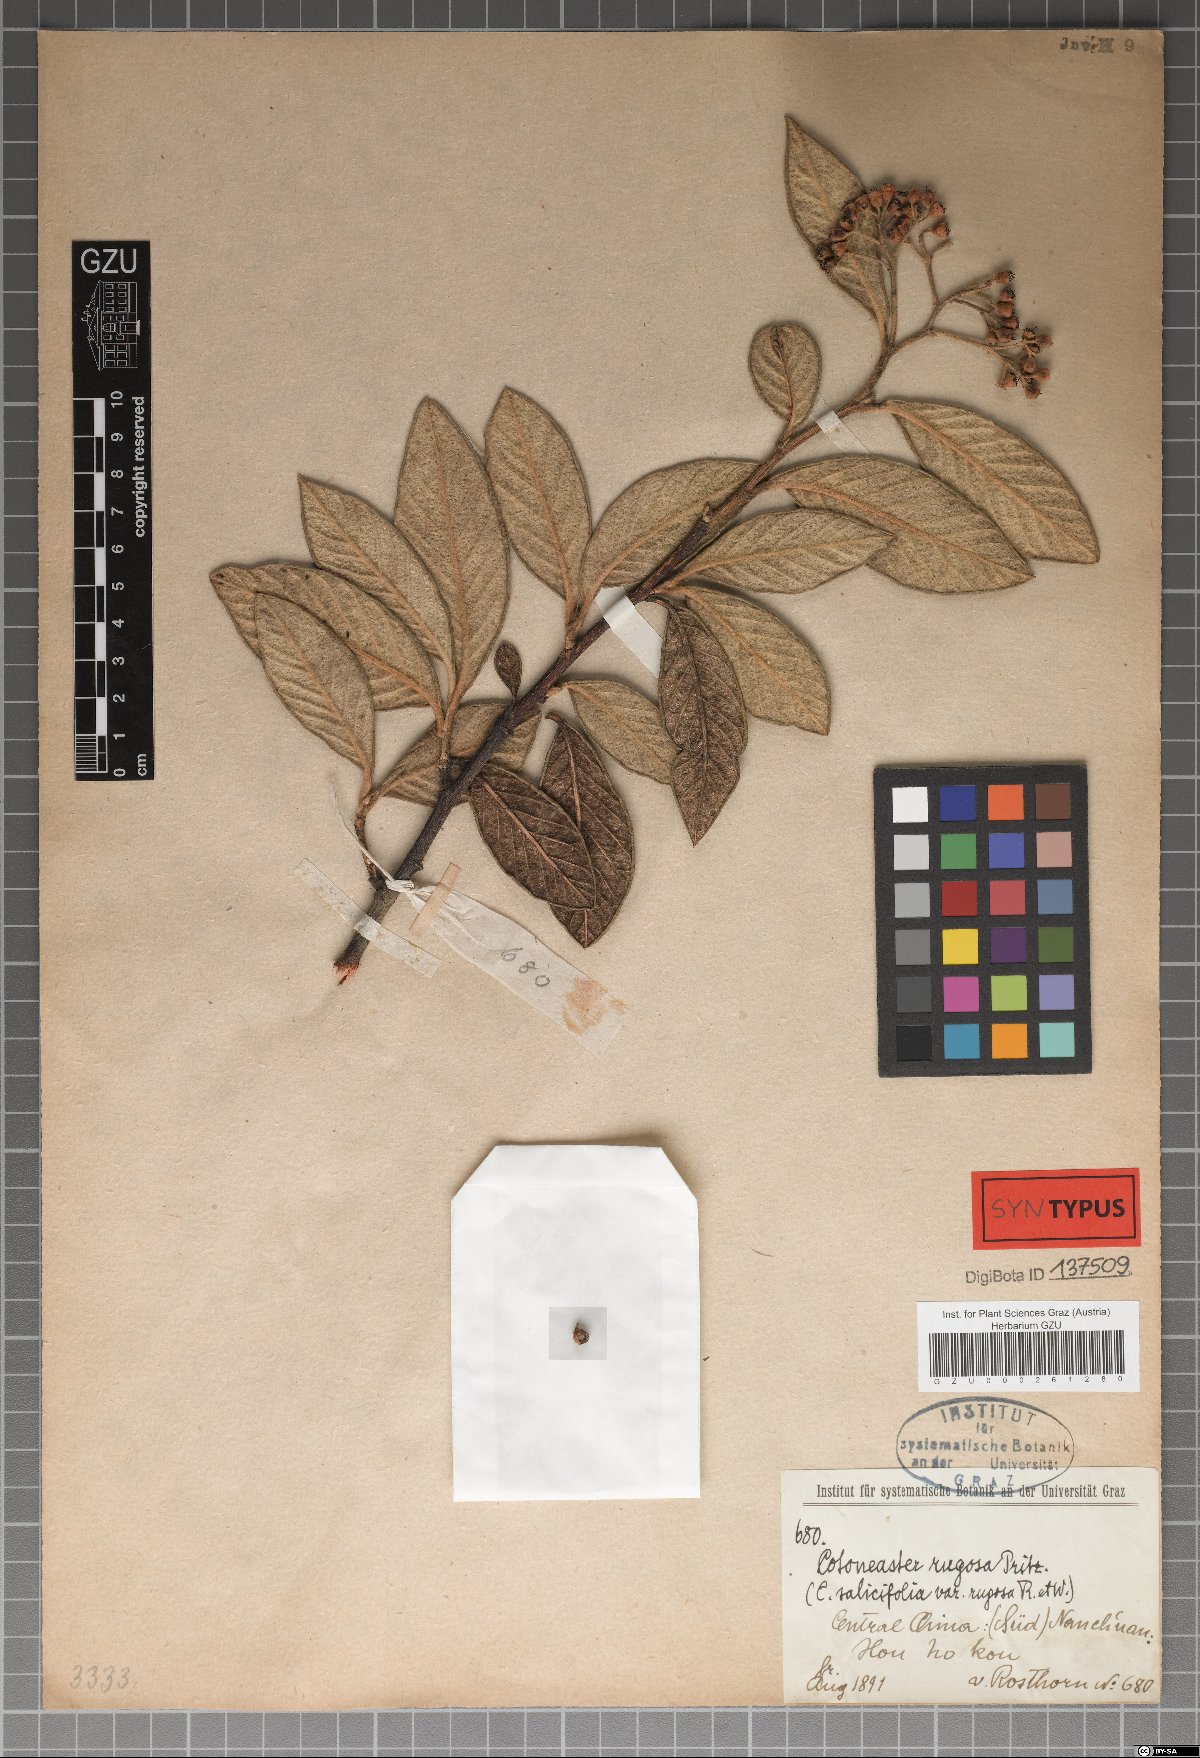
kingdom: Plantae
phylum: Tracheophyta
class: Magnoliopsida
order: Rosales
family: Rosaceae
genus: Cotoneaster
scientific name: Cotoneaster salicifolius
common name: Willow-leaved cotoneaster
